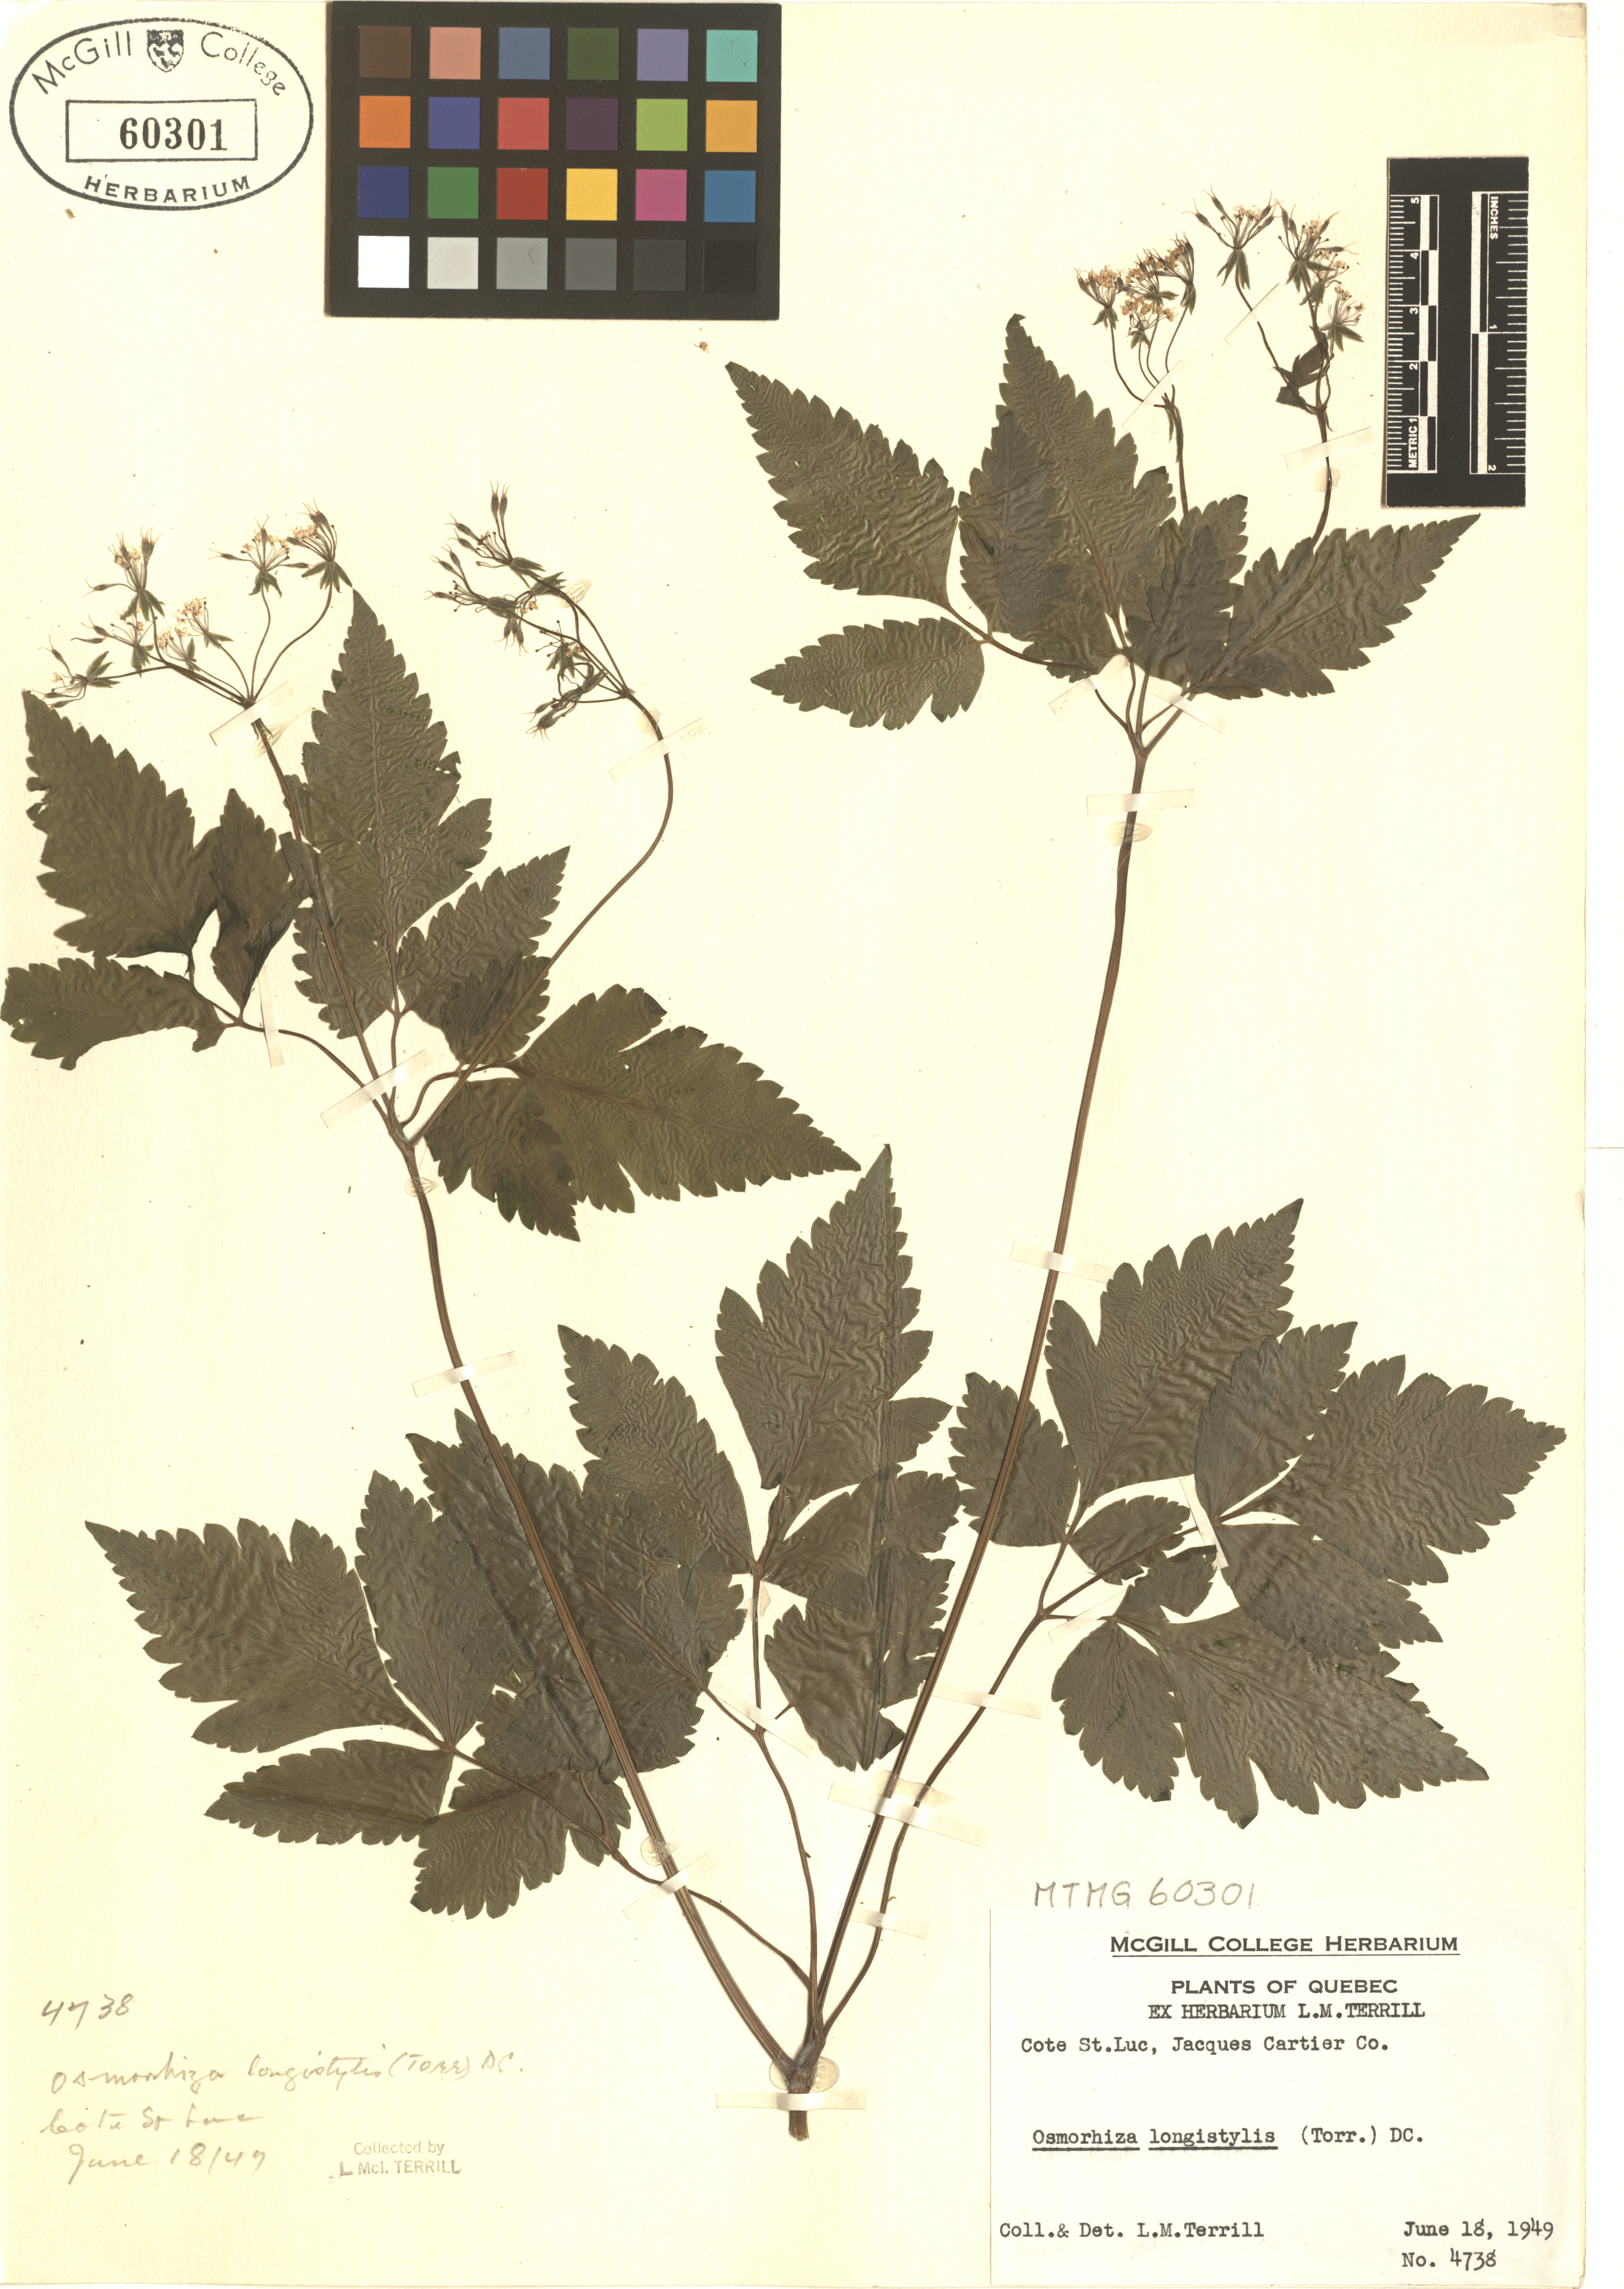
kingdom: Plantae
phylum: Tracheophyta
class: Magnoliopsida
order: Apiales
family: Apiaceae
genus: Osmorhiza
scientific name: Osmorhiza longistylis
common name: Smooth sweet cicely
